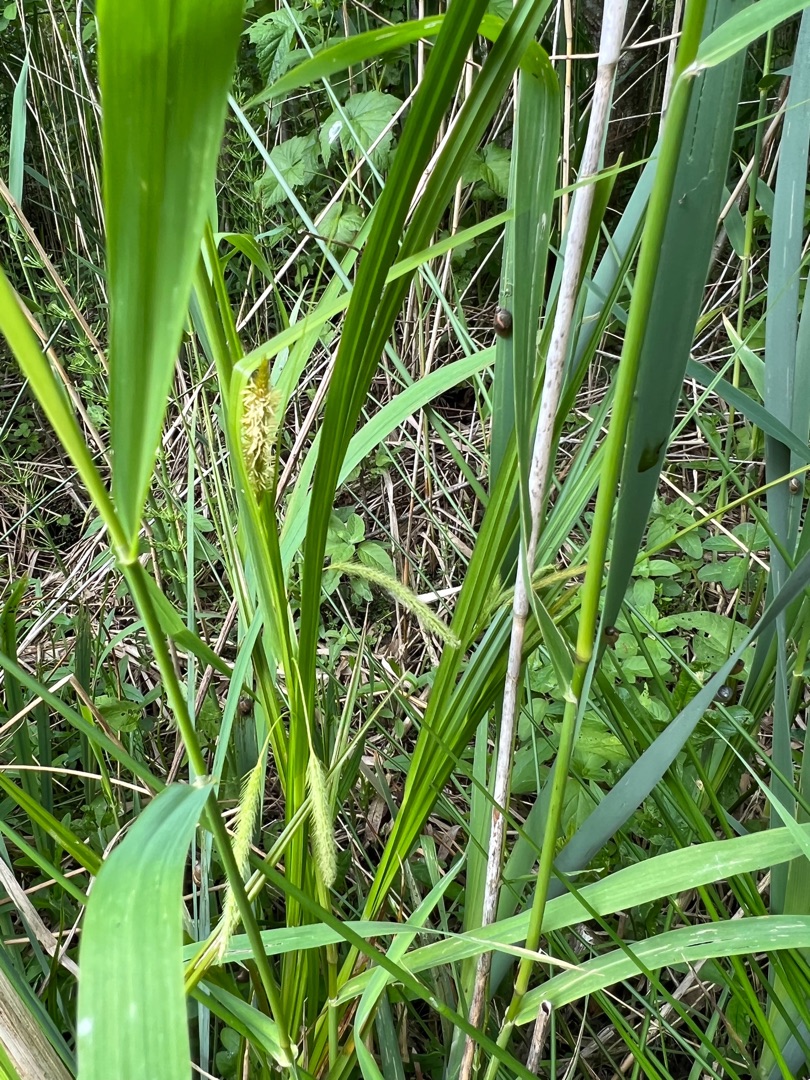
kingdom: Plantae
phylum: Tracheophyta
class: Liliopsida
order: Poales
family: Cyperaceae
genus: Carex
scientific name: Carex pseudocyperus
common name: Knippe-star
